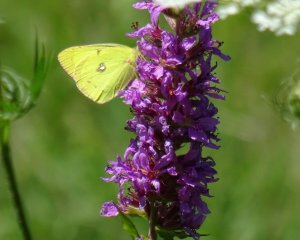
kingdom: Animalia
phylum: Arthropoda
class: Insecta
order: Lepidoptera
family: Pieridae
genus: Colias
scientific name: Colias philodice
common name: Clouded Sulphur
